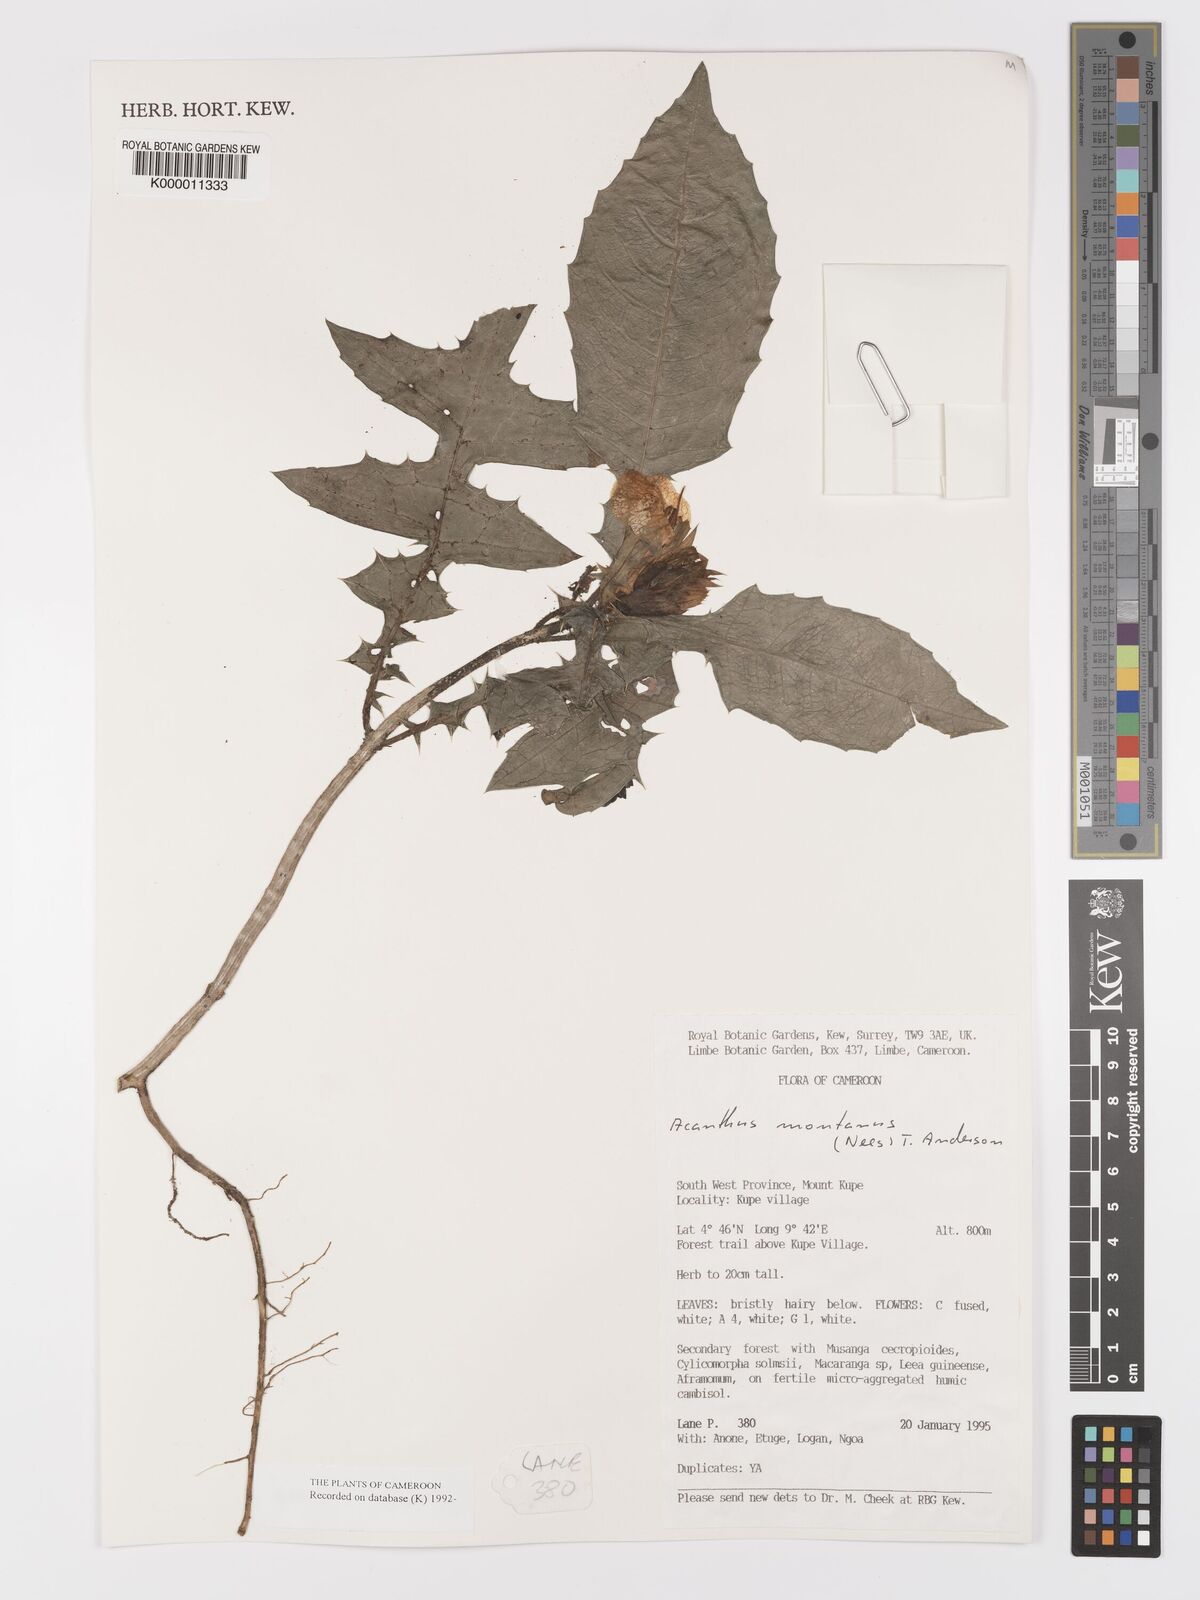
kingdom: Plantae
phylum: Tracheophyta
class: Magnoliopsida
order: Lamiales
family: Acanthaceae
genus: Acanthus
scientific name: Acanthus montanus
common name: Mountain thistle
